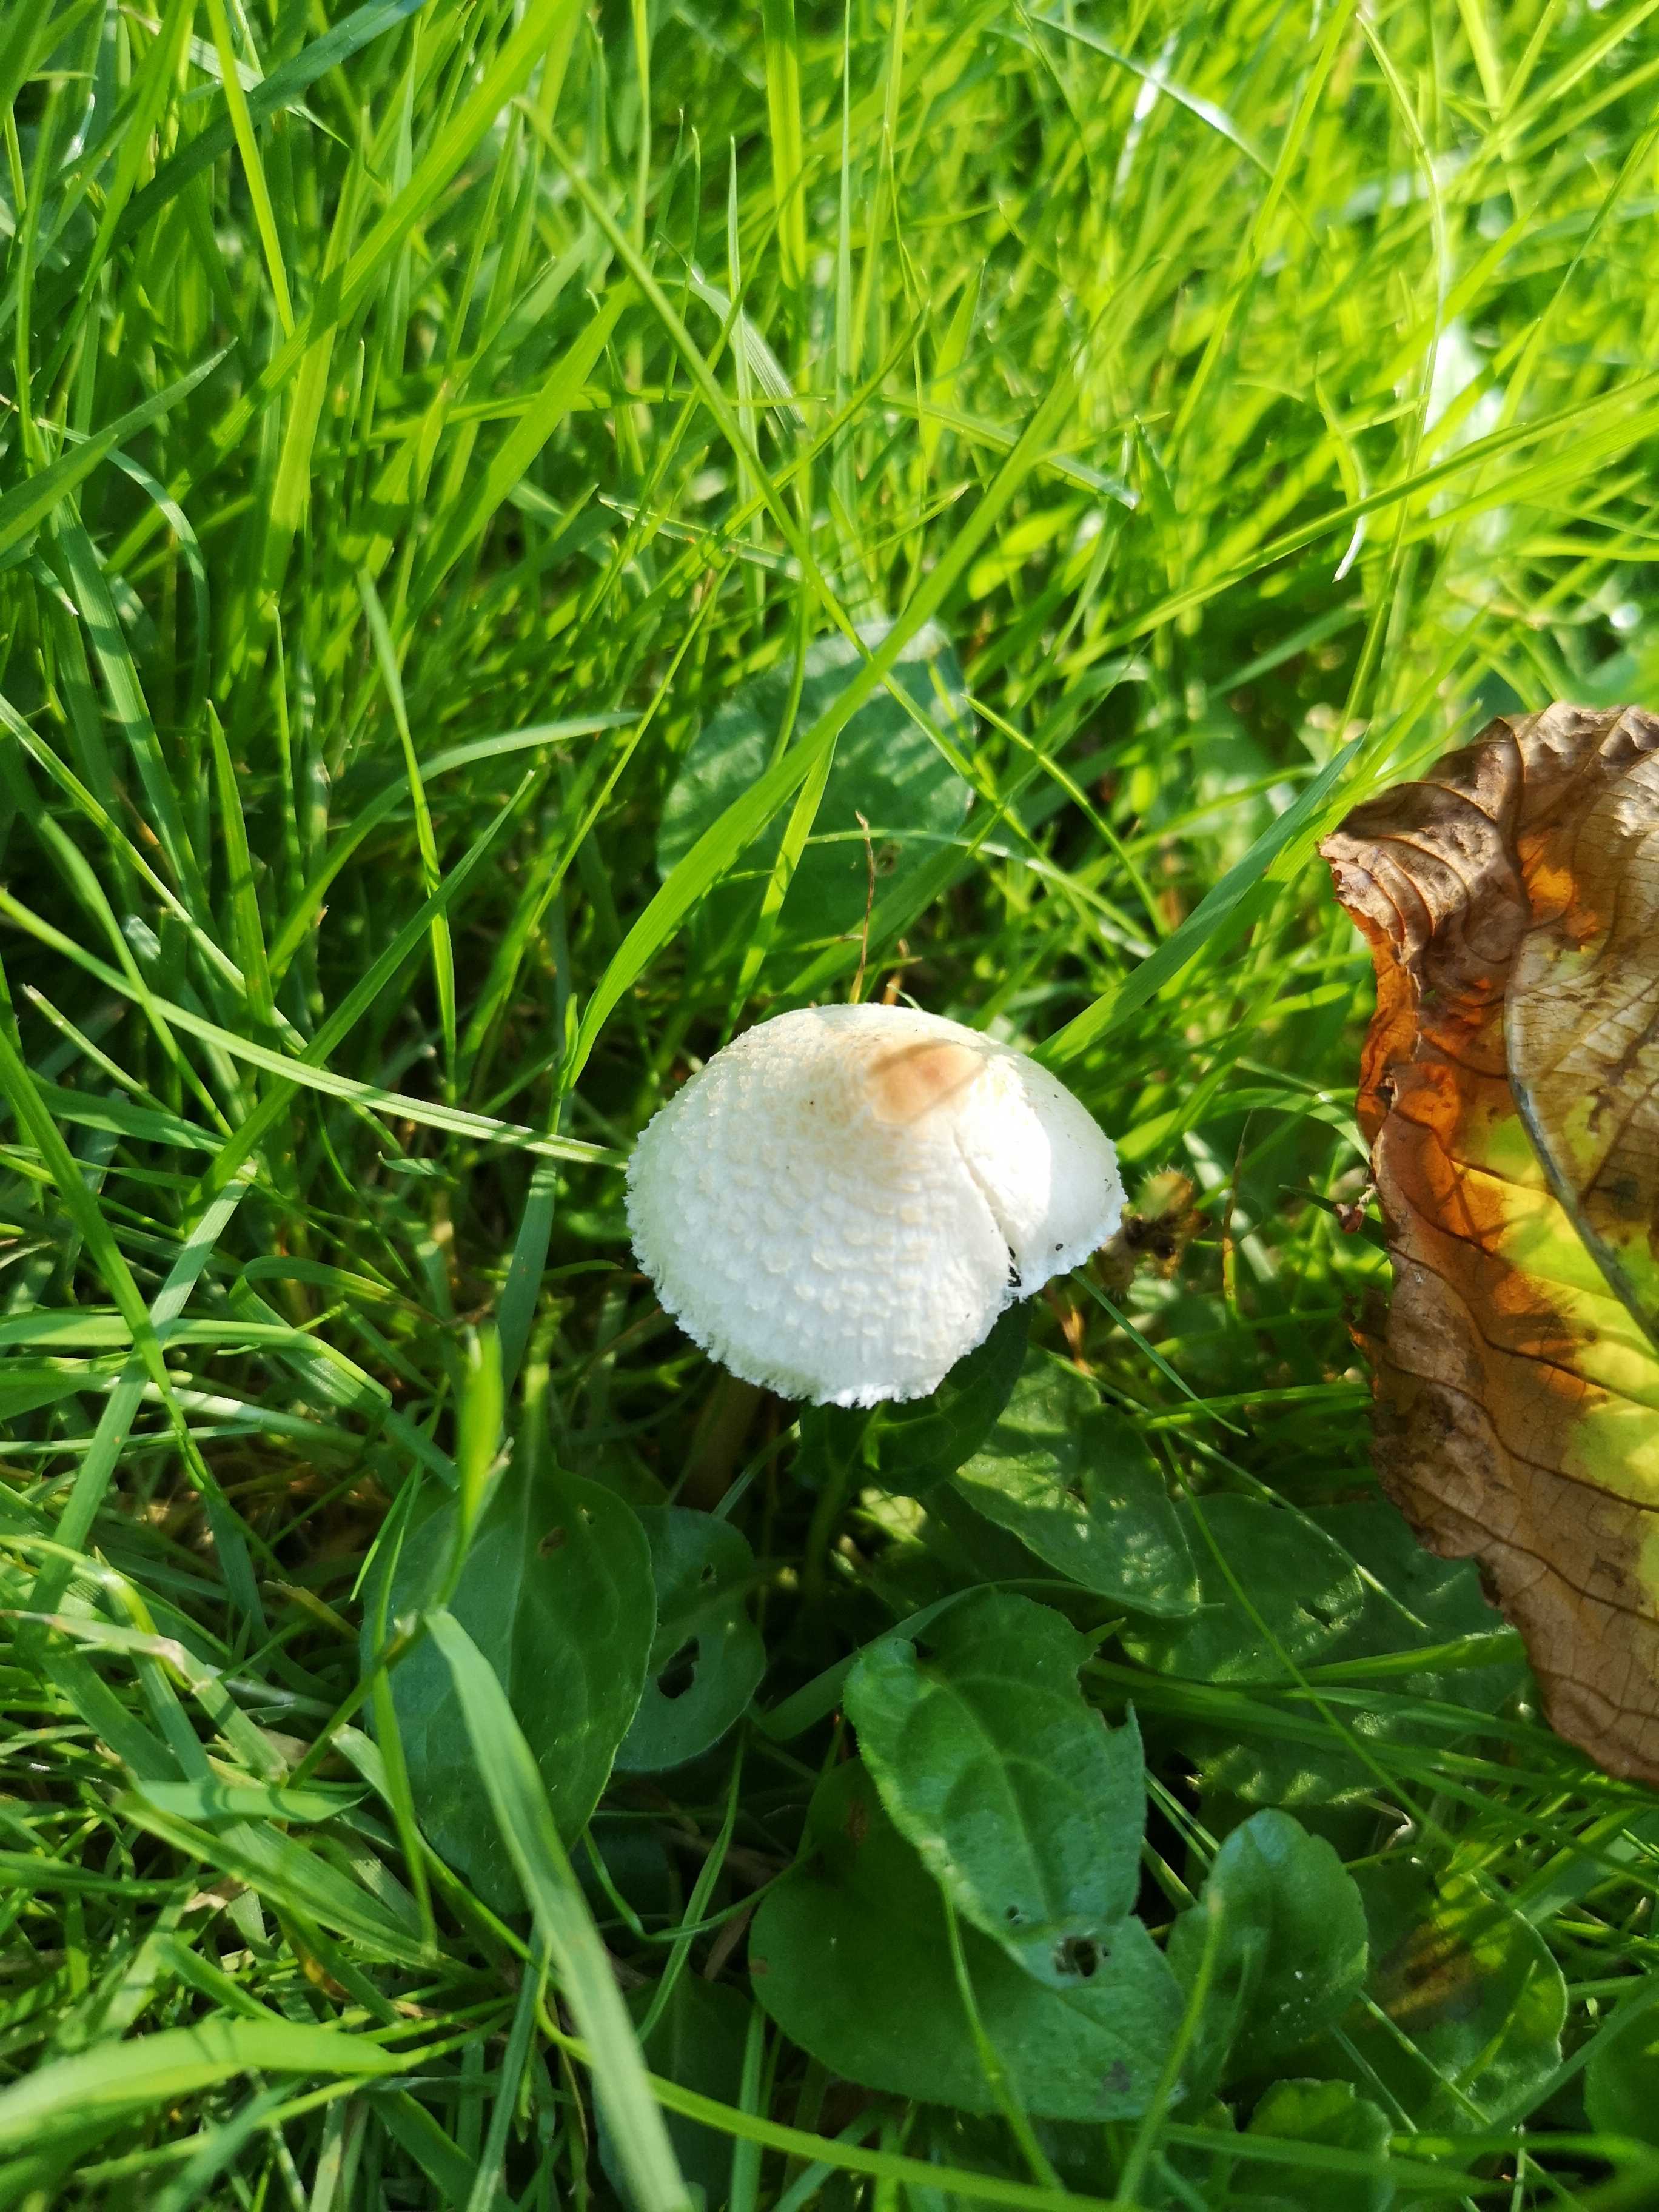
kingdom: Fungi
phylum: Basidiomycota
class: Agaricomycetes
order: Agaricales
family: Agaricaceae
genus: Lepiota
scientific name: Lepiota cristata
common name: stinkende parasolhat
